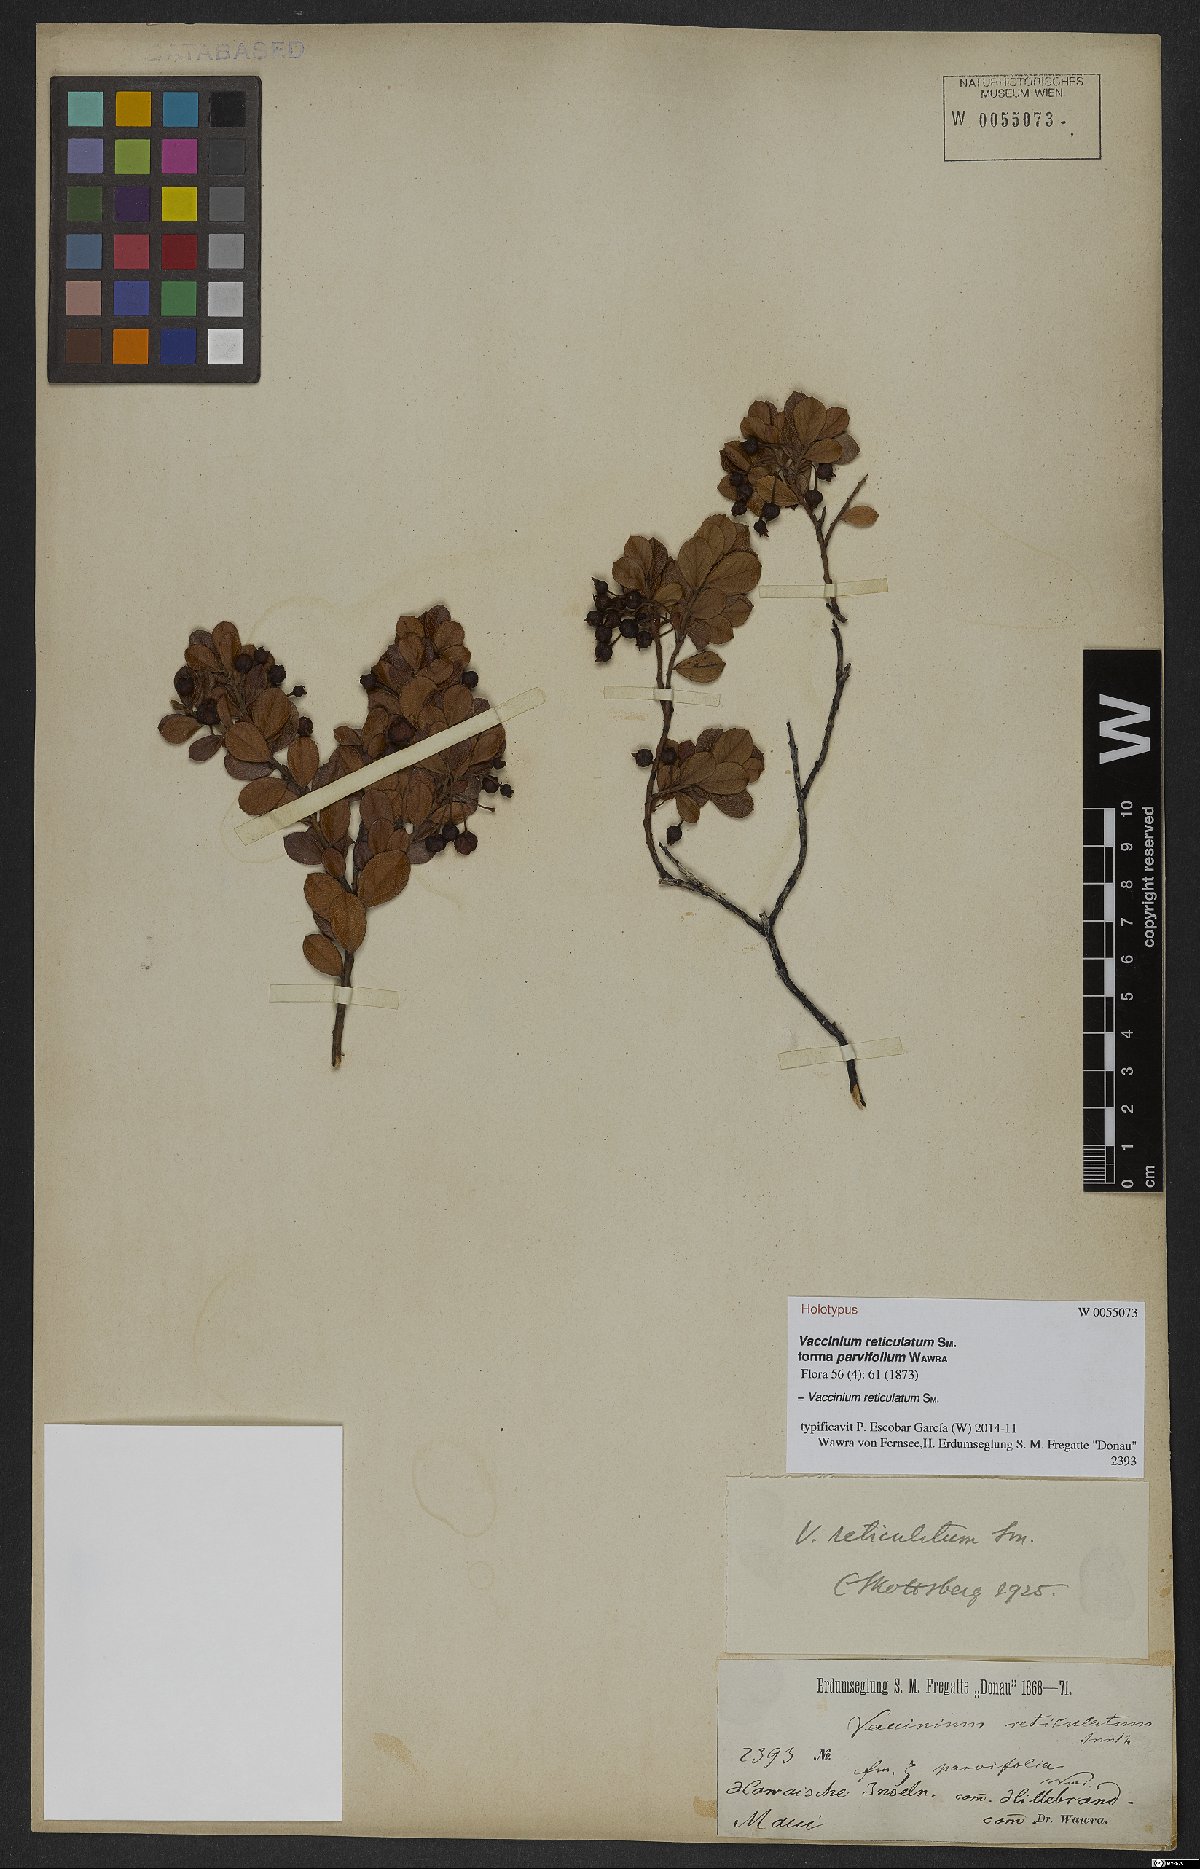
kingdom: Plantae
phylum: Tracheophyta
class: Magnoliopsida
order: Ericales
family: Ericaceae
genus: Vaccinium
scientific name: Vaccinium reticulatum
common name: Ohelo
